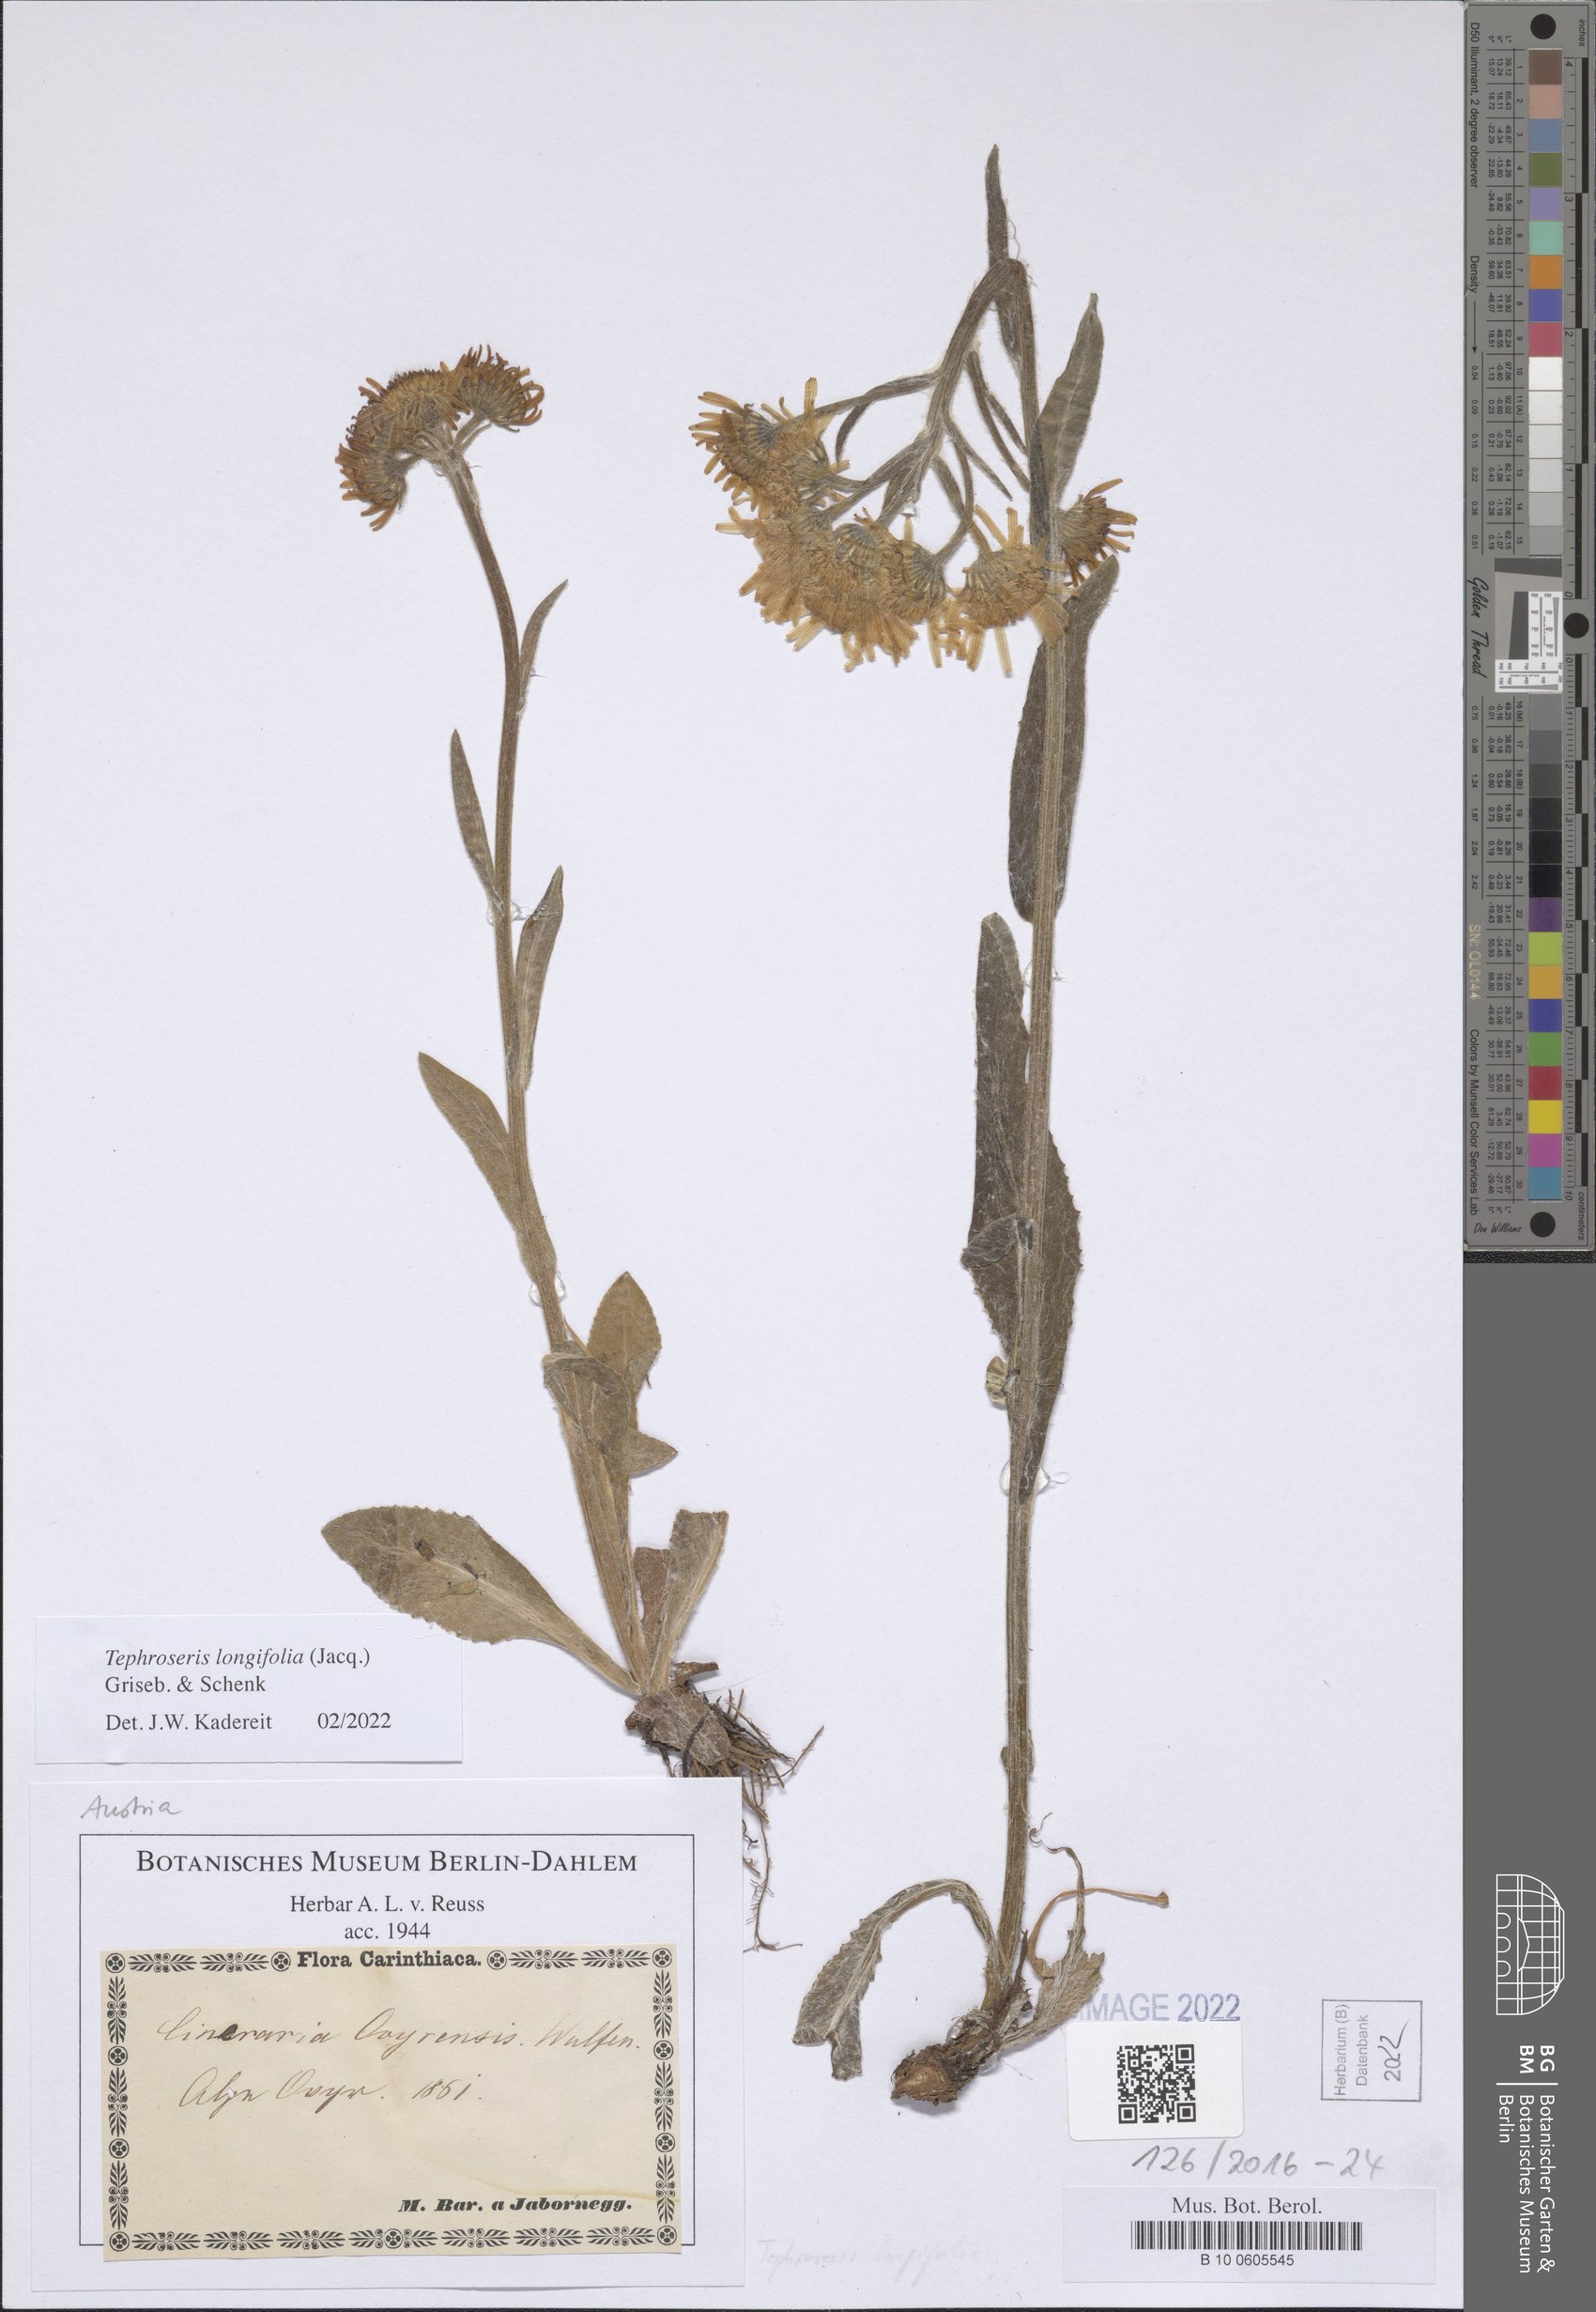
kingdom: Plantae
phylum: Tracheophyta
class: Magnoliopsida
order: Asterales
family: Asteraceae
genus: Tephroseris
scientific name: Tephroseris longifolia
